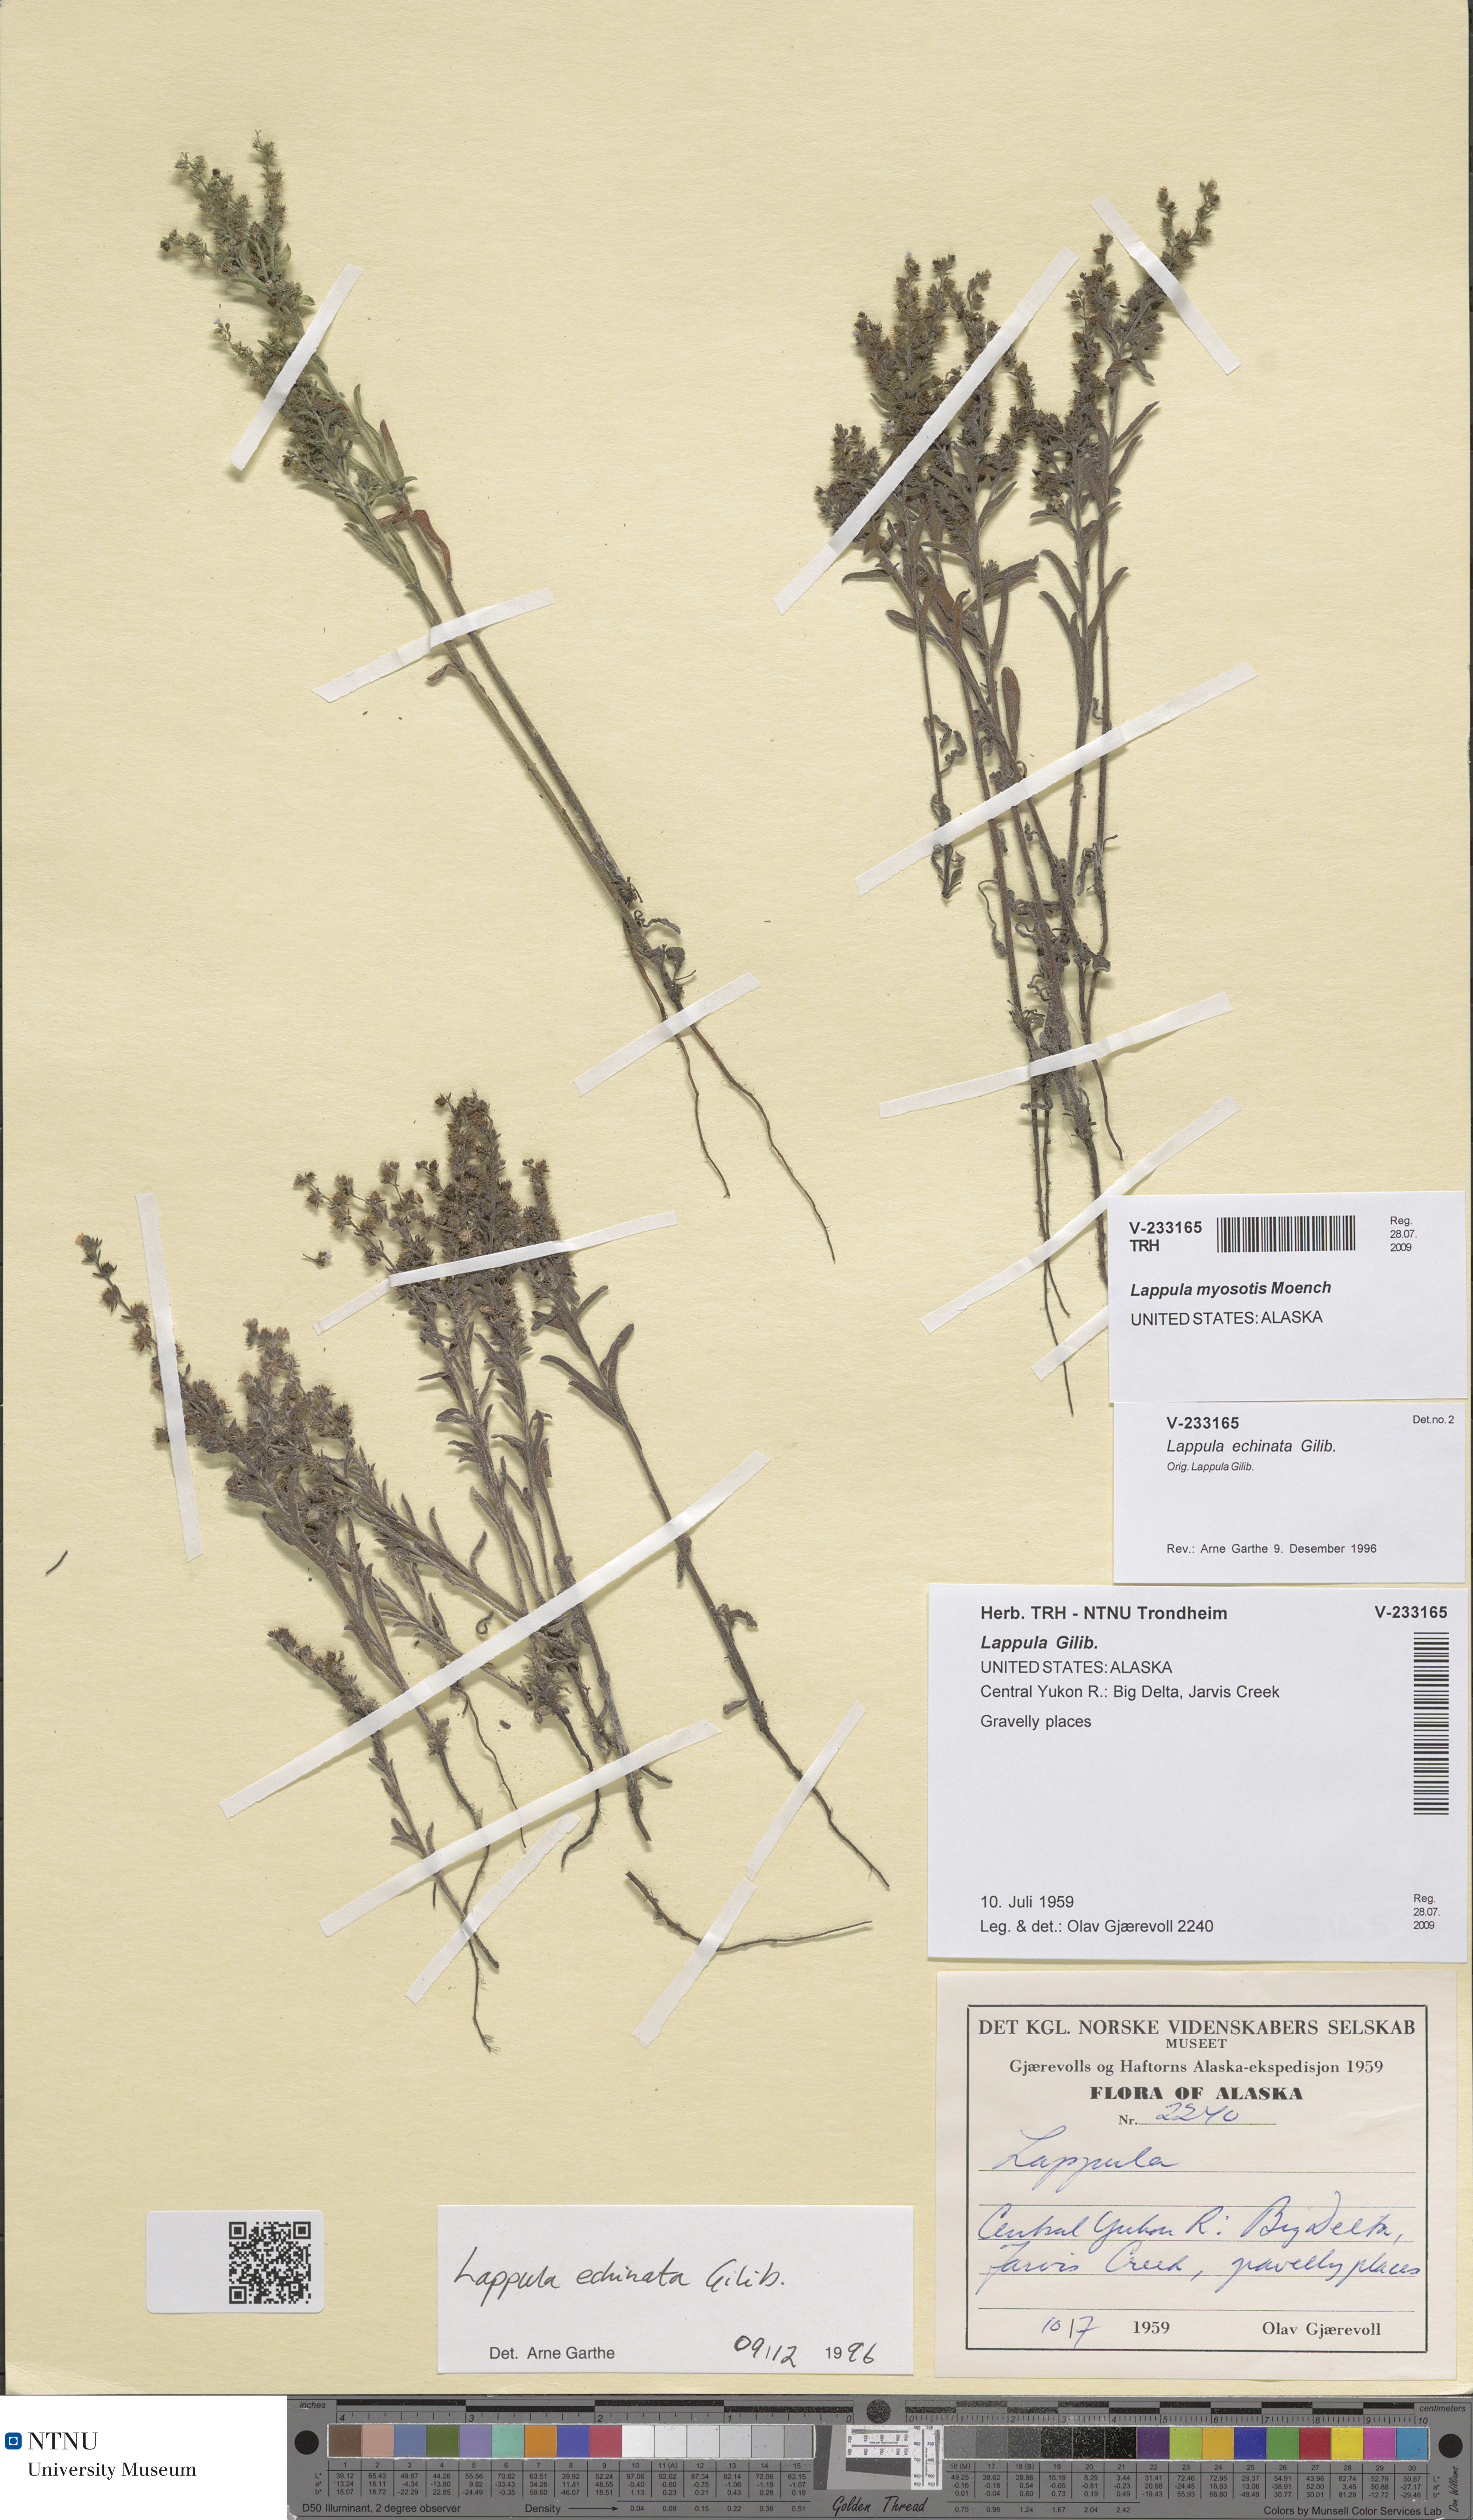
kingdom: Plantae
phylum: Tracheophyta
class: Magnoliopsida
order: Boraginales
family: Boraginaceae
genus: Lappula
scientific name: Lappula squarrosa
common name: European stickseed
